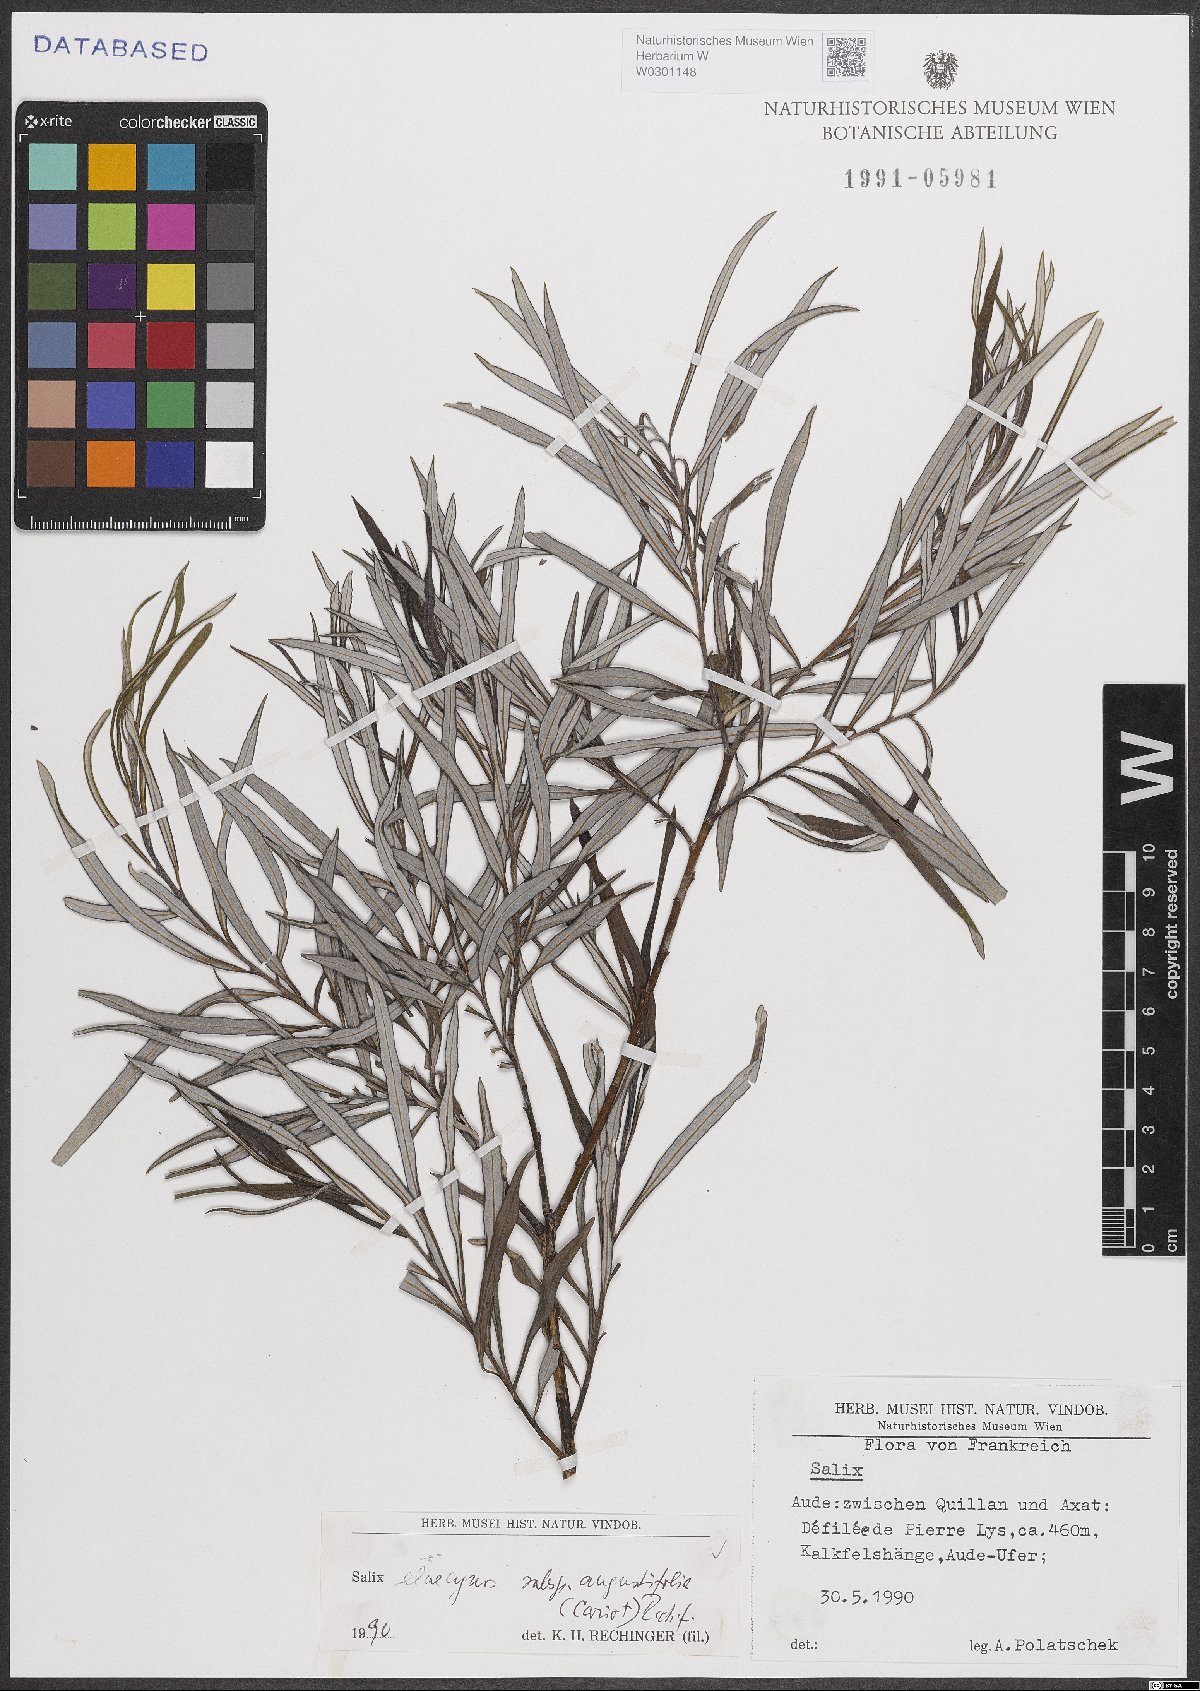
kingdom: Plantae
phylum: Tracheophyta
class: Magnoliopsida
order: Malpighiales
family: Salicaceae
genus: Salix
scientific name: Salix eleagnos
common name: Elaeagnus willow
